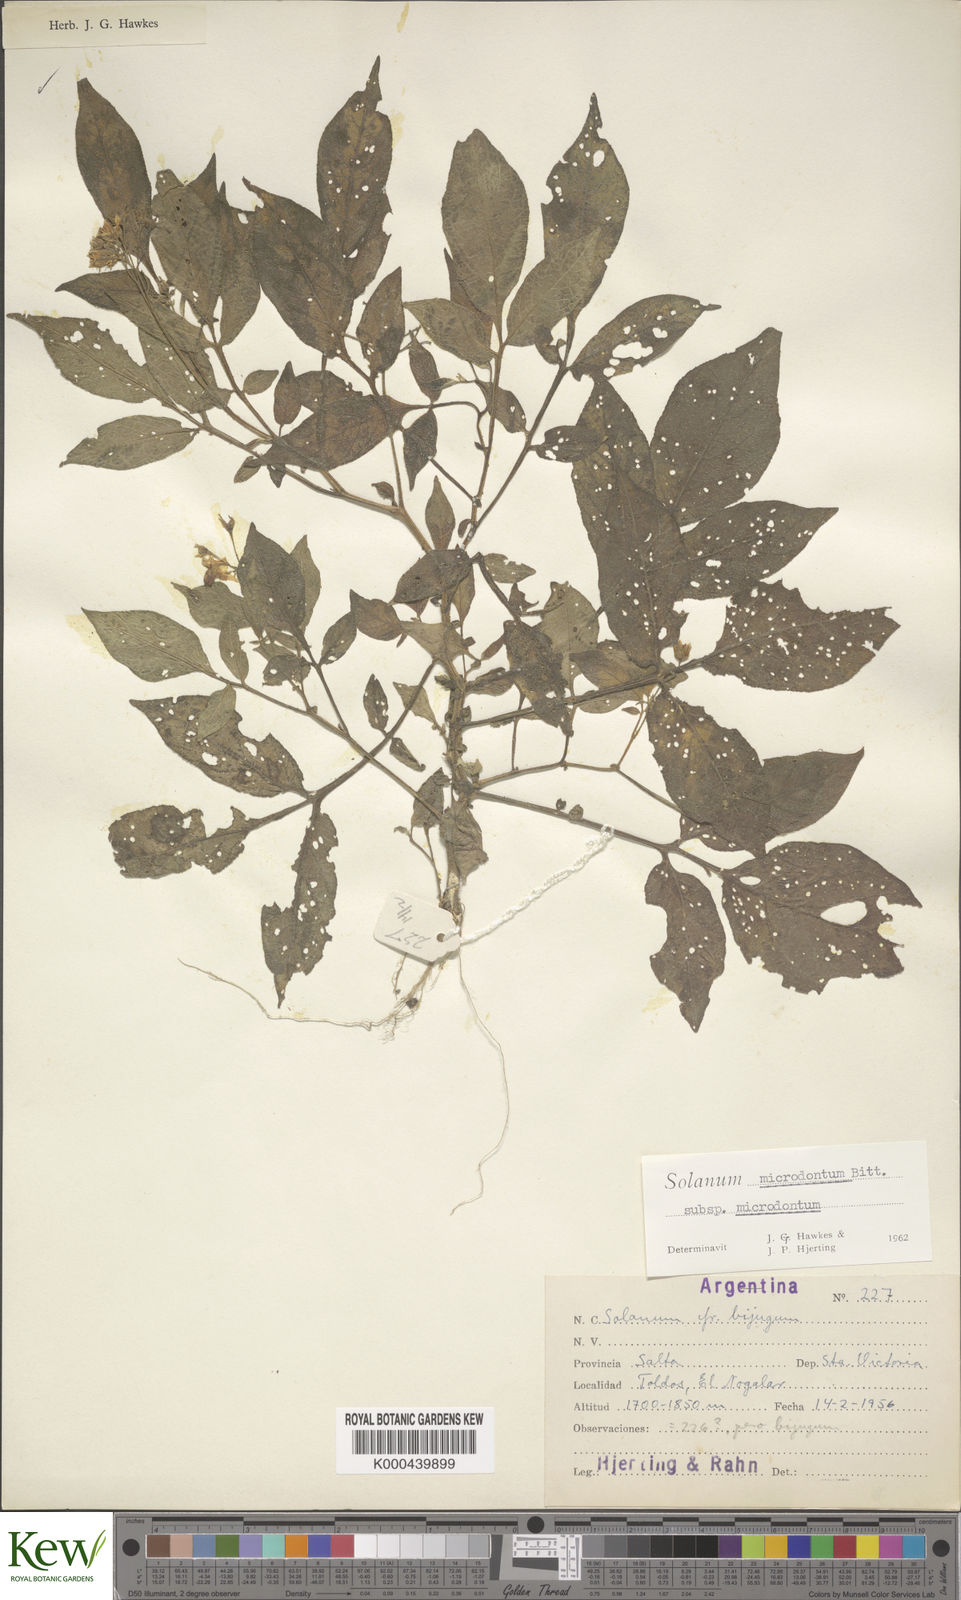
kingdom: Plantae
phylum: Tracheophyta
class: Magnoliopsida
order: Solanales
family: Solanaceae
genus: Solanum
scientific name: Solanum microdontum
